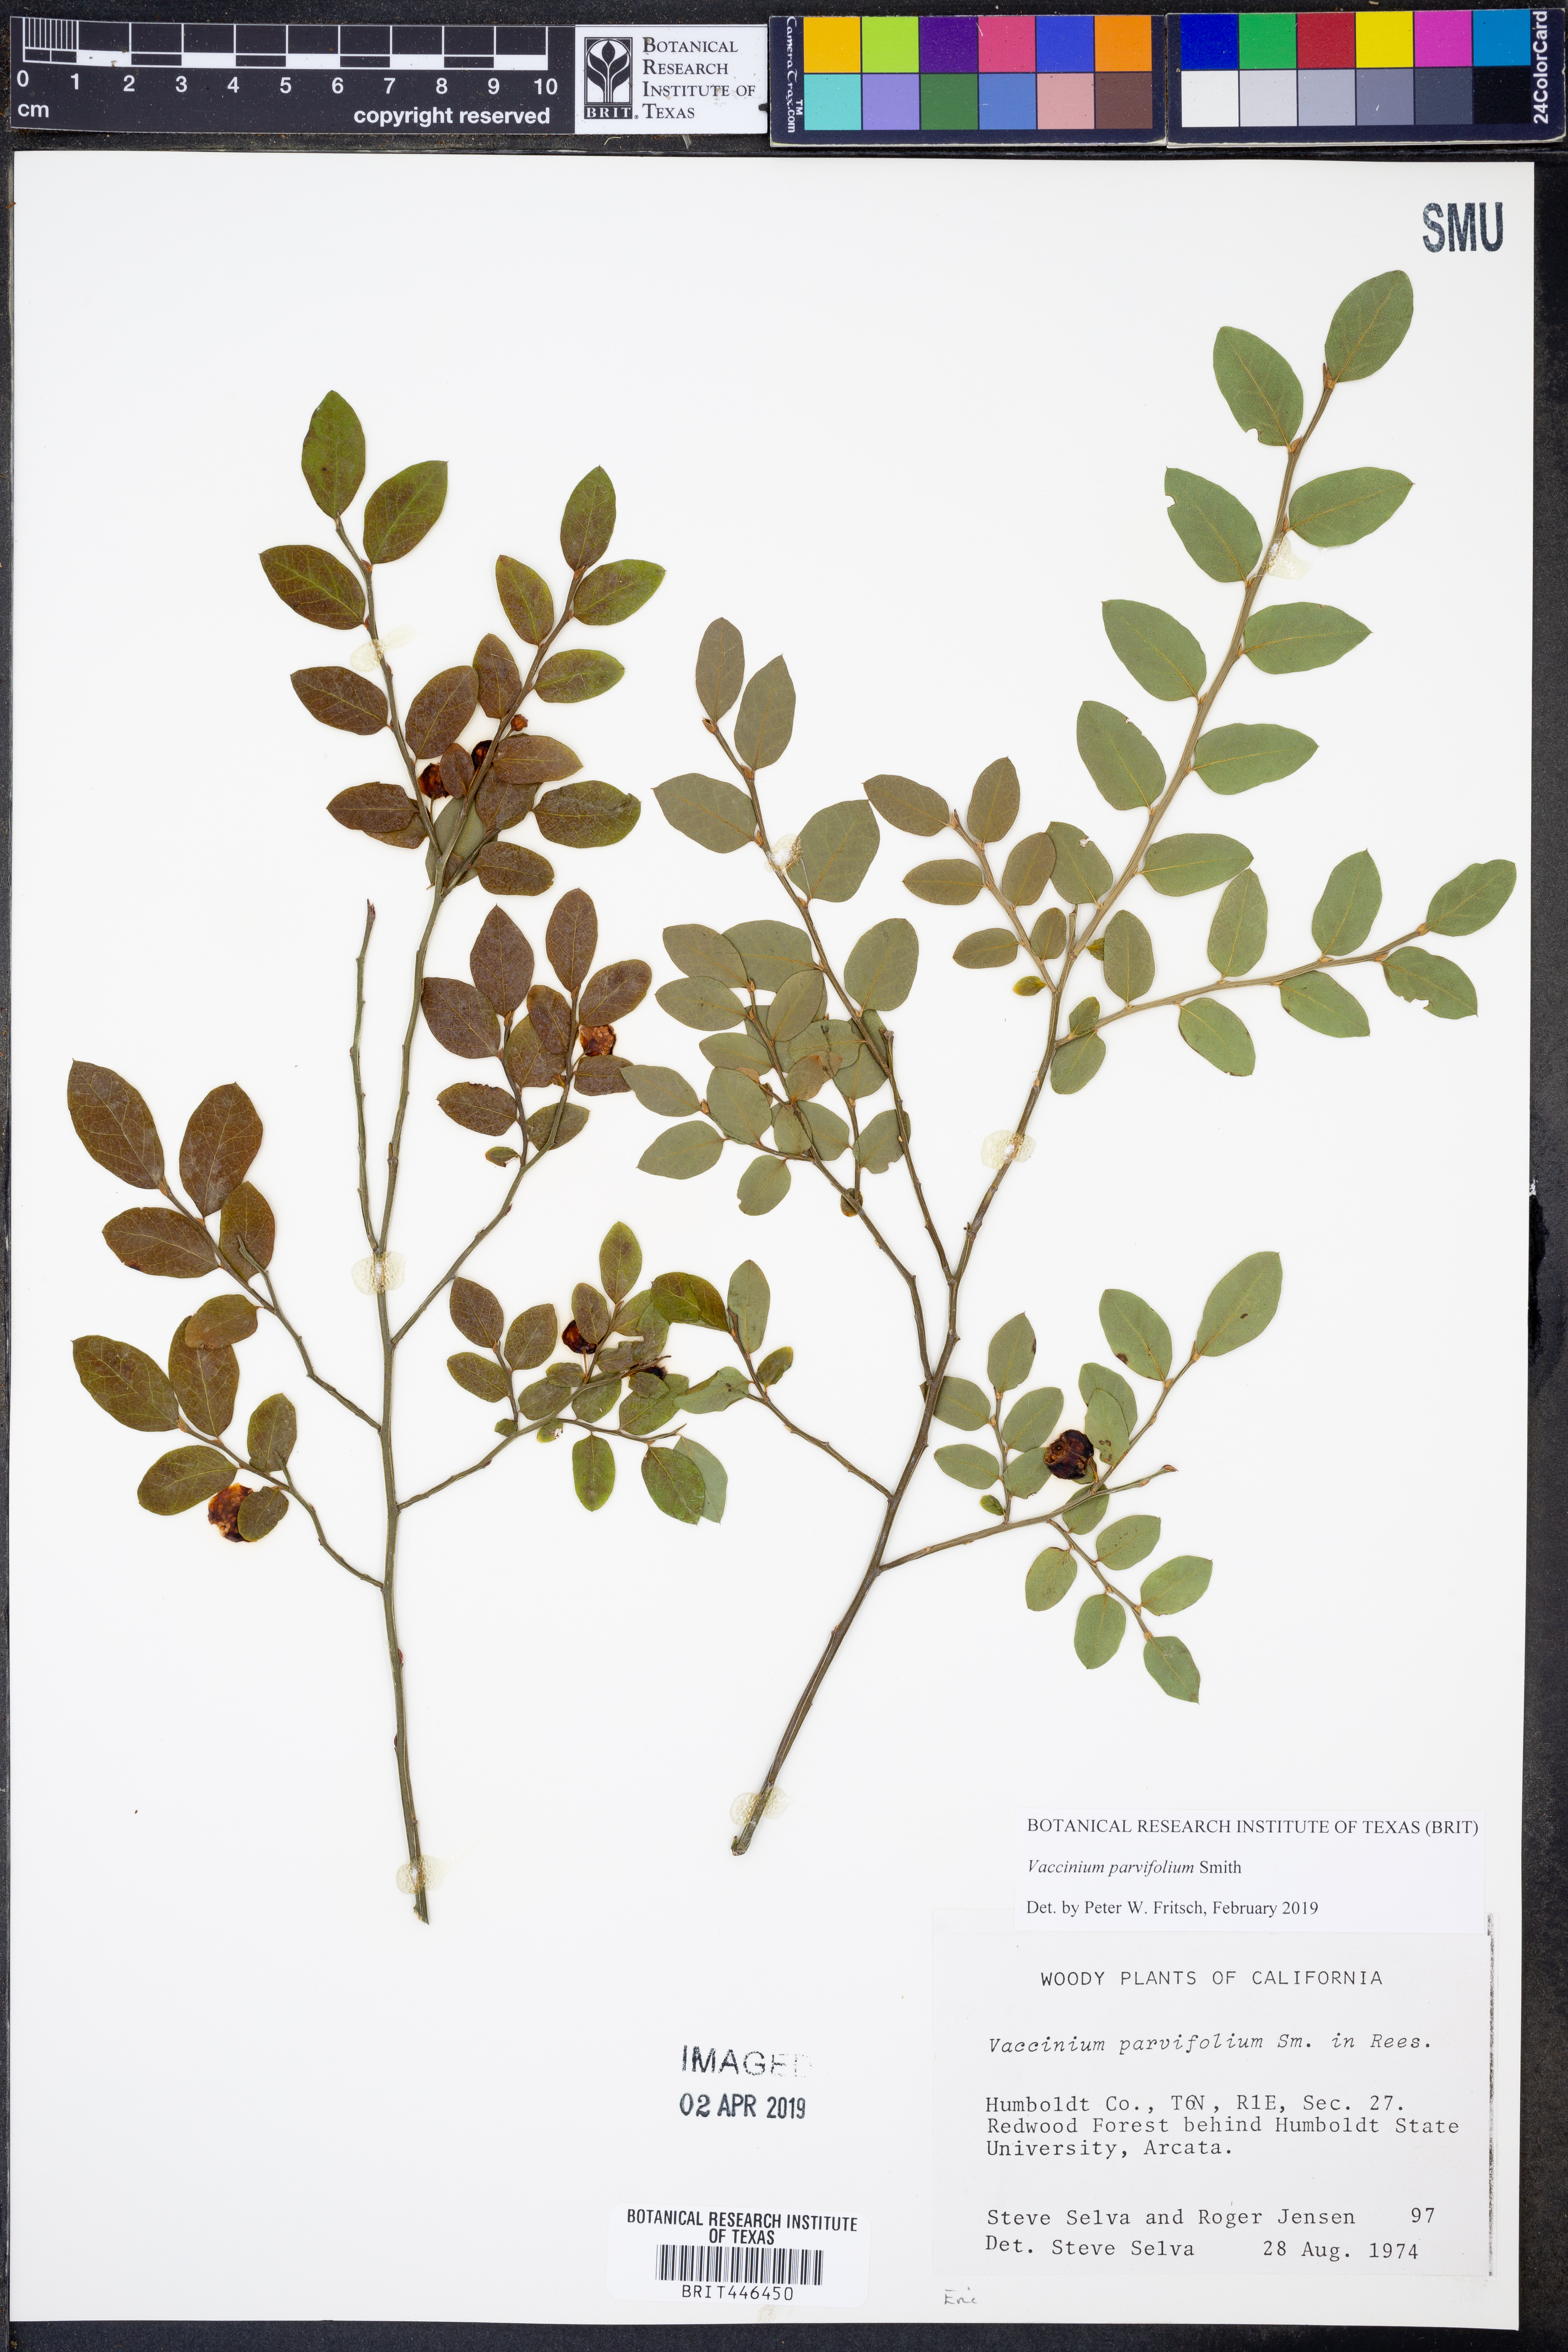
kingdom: Plantae
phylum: Tracheophyta
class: Magnoliopsida
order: Ericales
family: Ericaceae
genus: Vaccinium
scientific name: Vaccinium parvifolium
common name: Red-huckleberry
